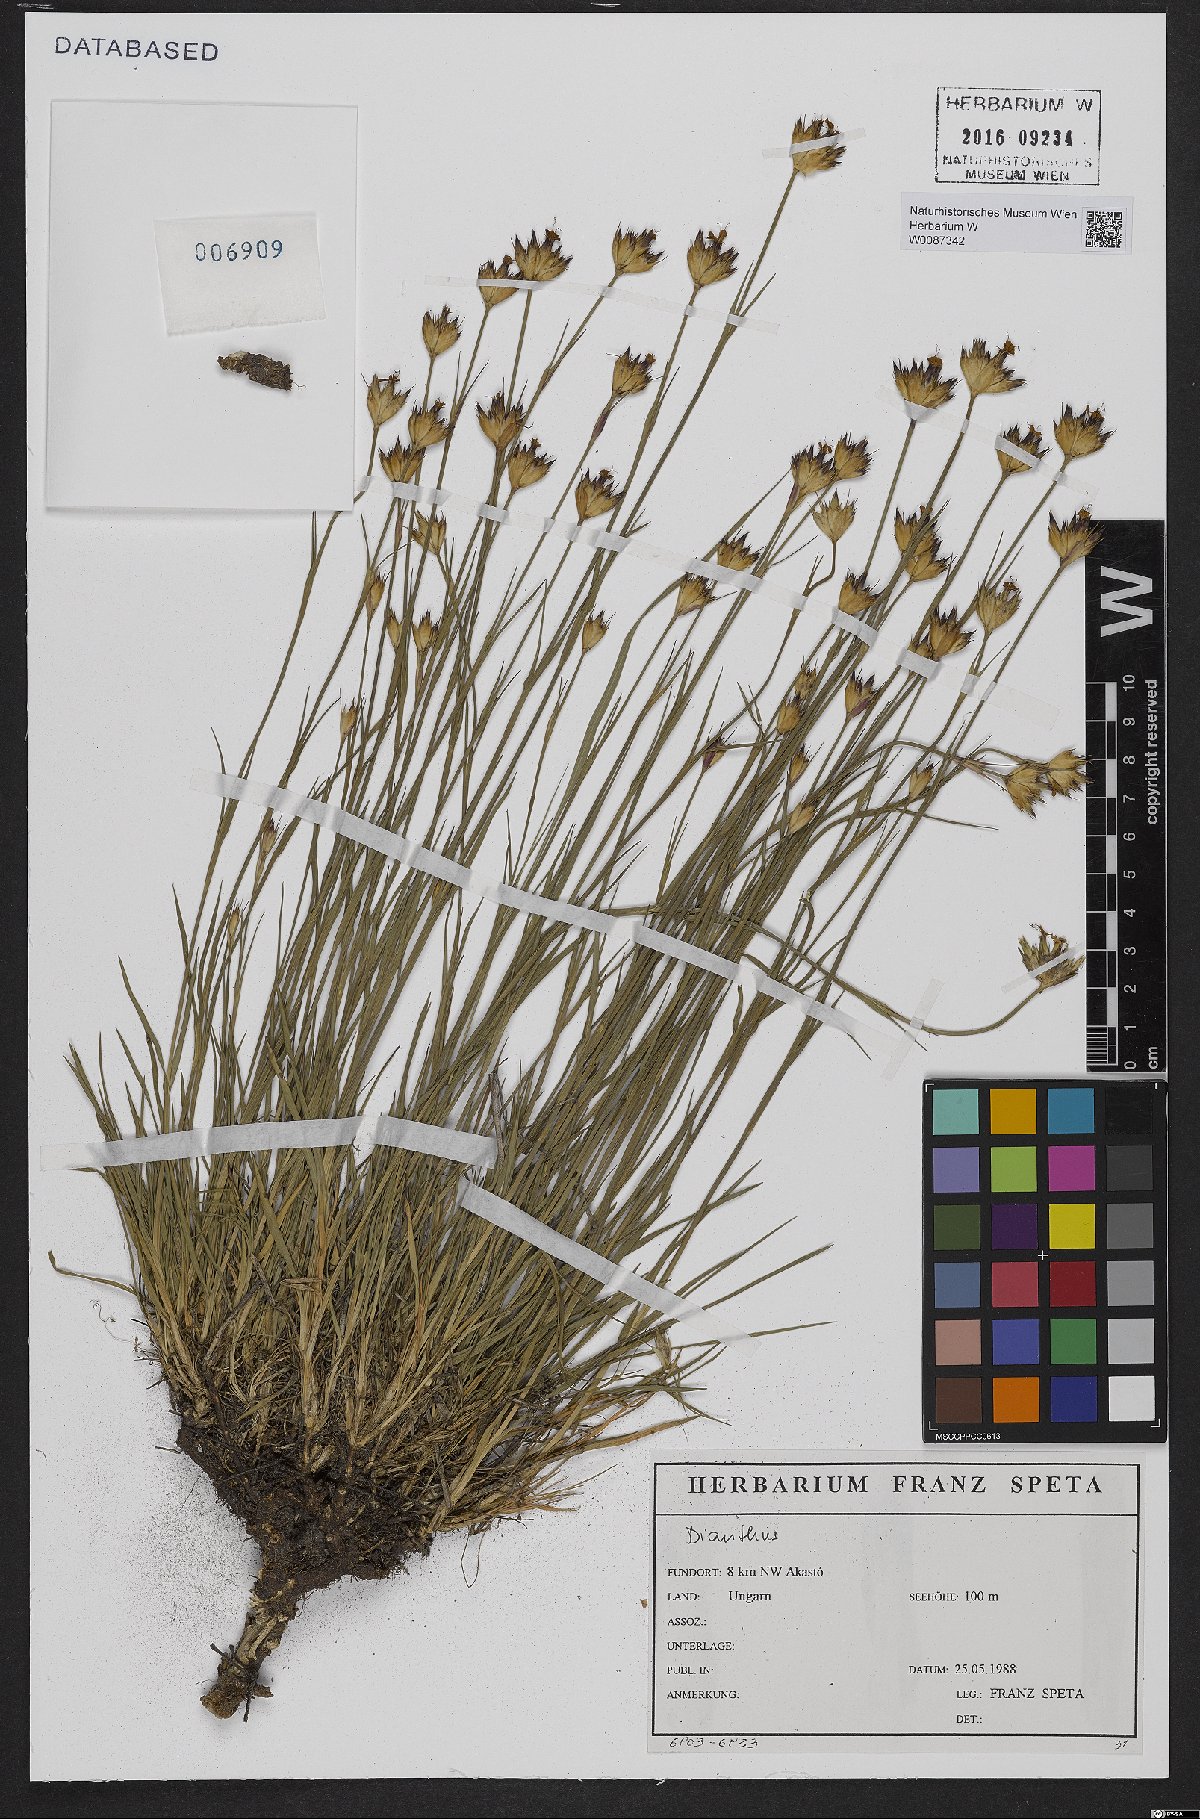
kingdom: Plantae
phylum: Tracheophyta
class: Magnoliopsida
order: Caryophyllales
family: Caryophyllaceae
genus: Dianthus
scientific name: Dianthus pontederae
